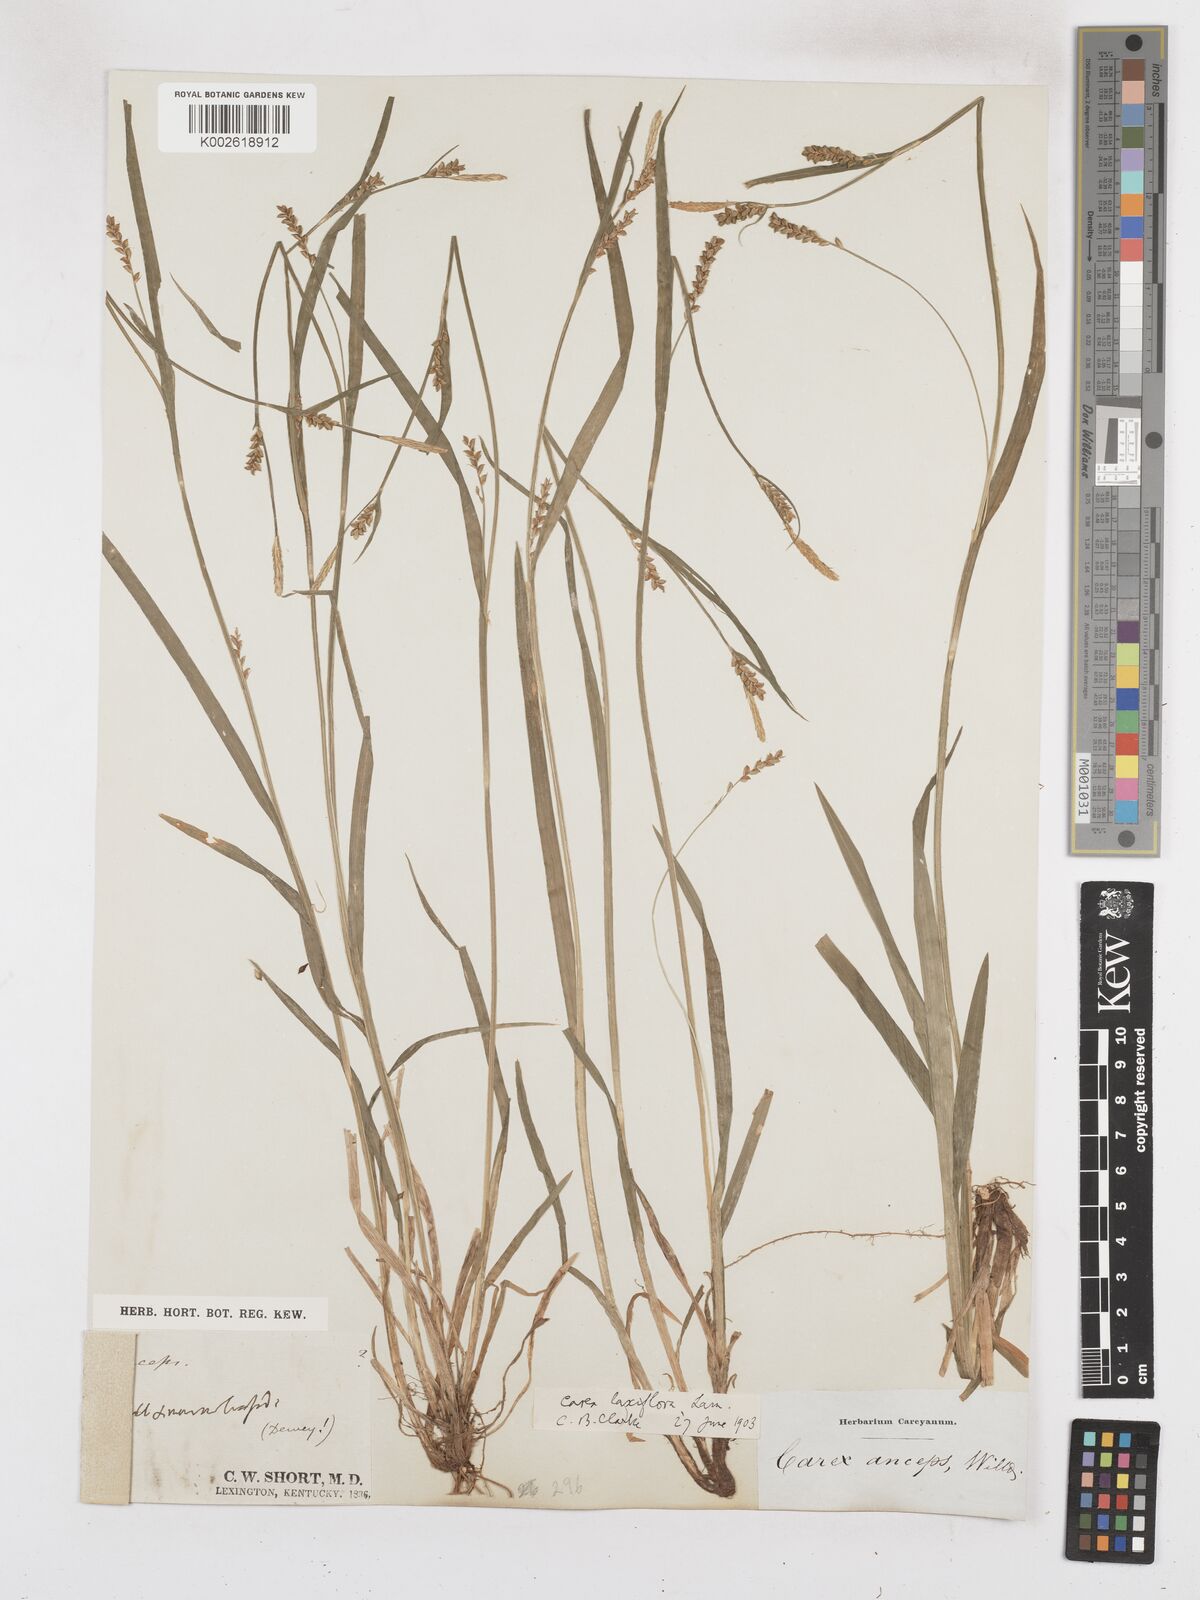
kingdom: Plantae
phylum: Tracheophyta
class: Liliopsida
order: Poales
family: Cyperaceae
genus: Carex
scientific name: Carex laxiflora
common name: Beech wood sedge
